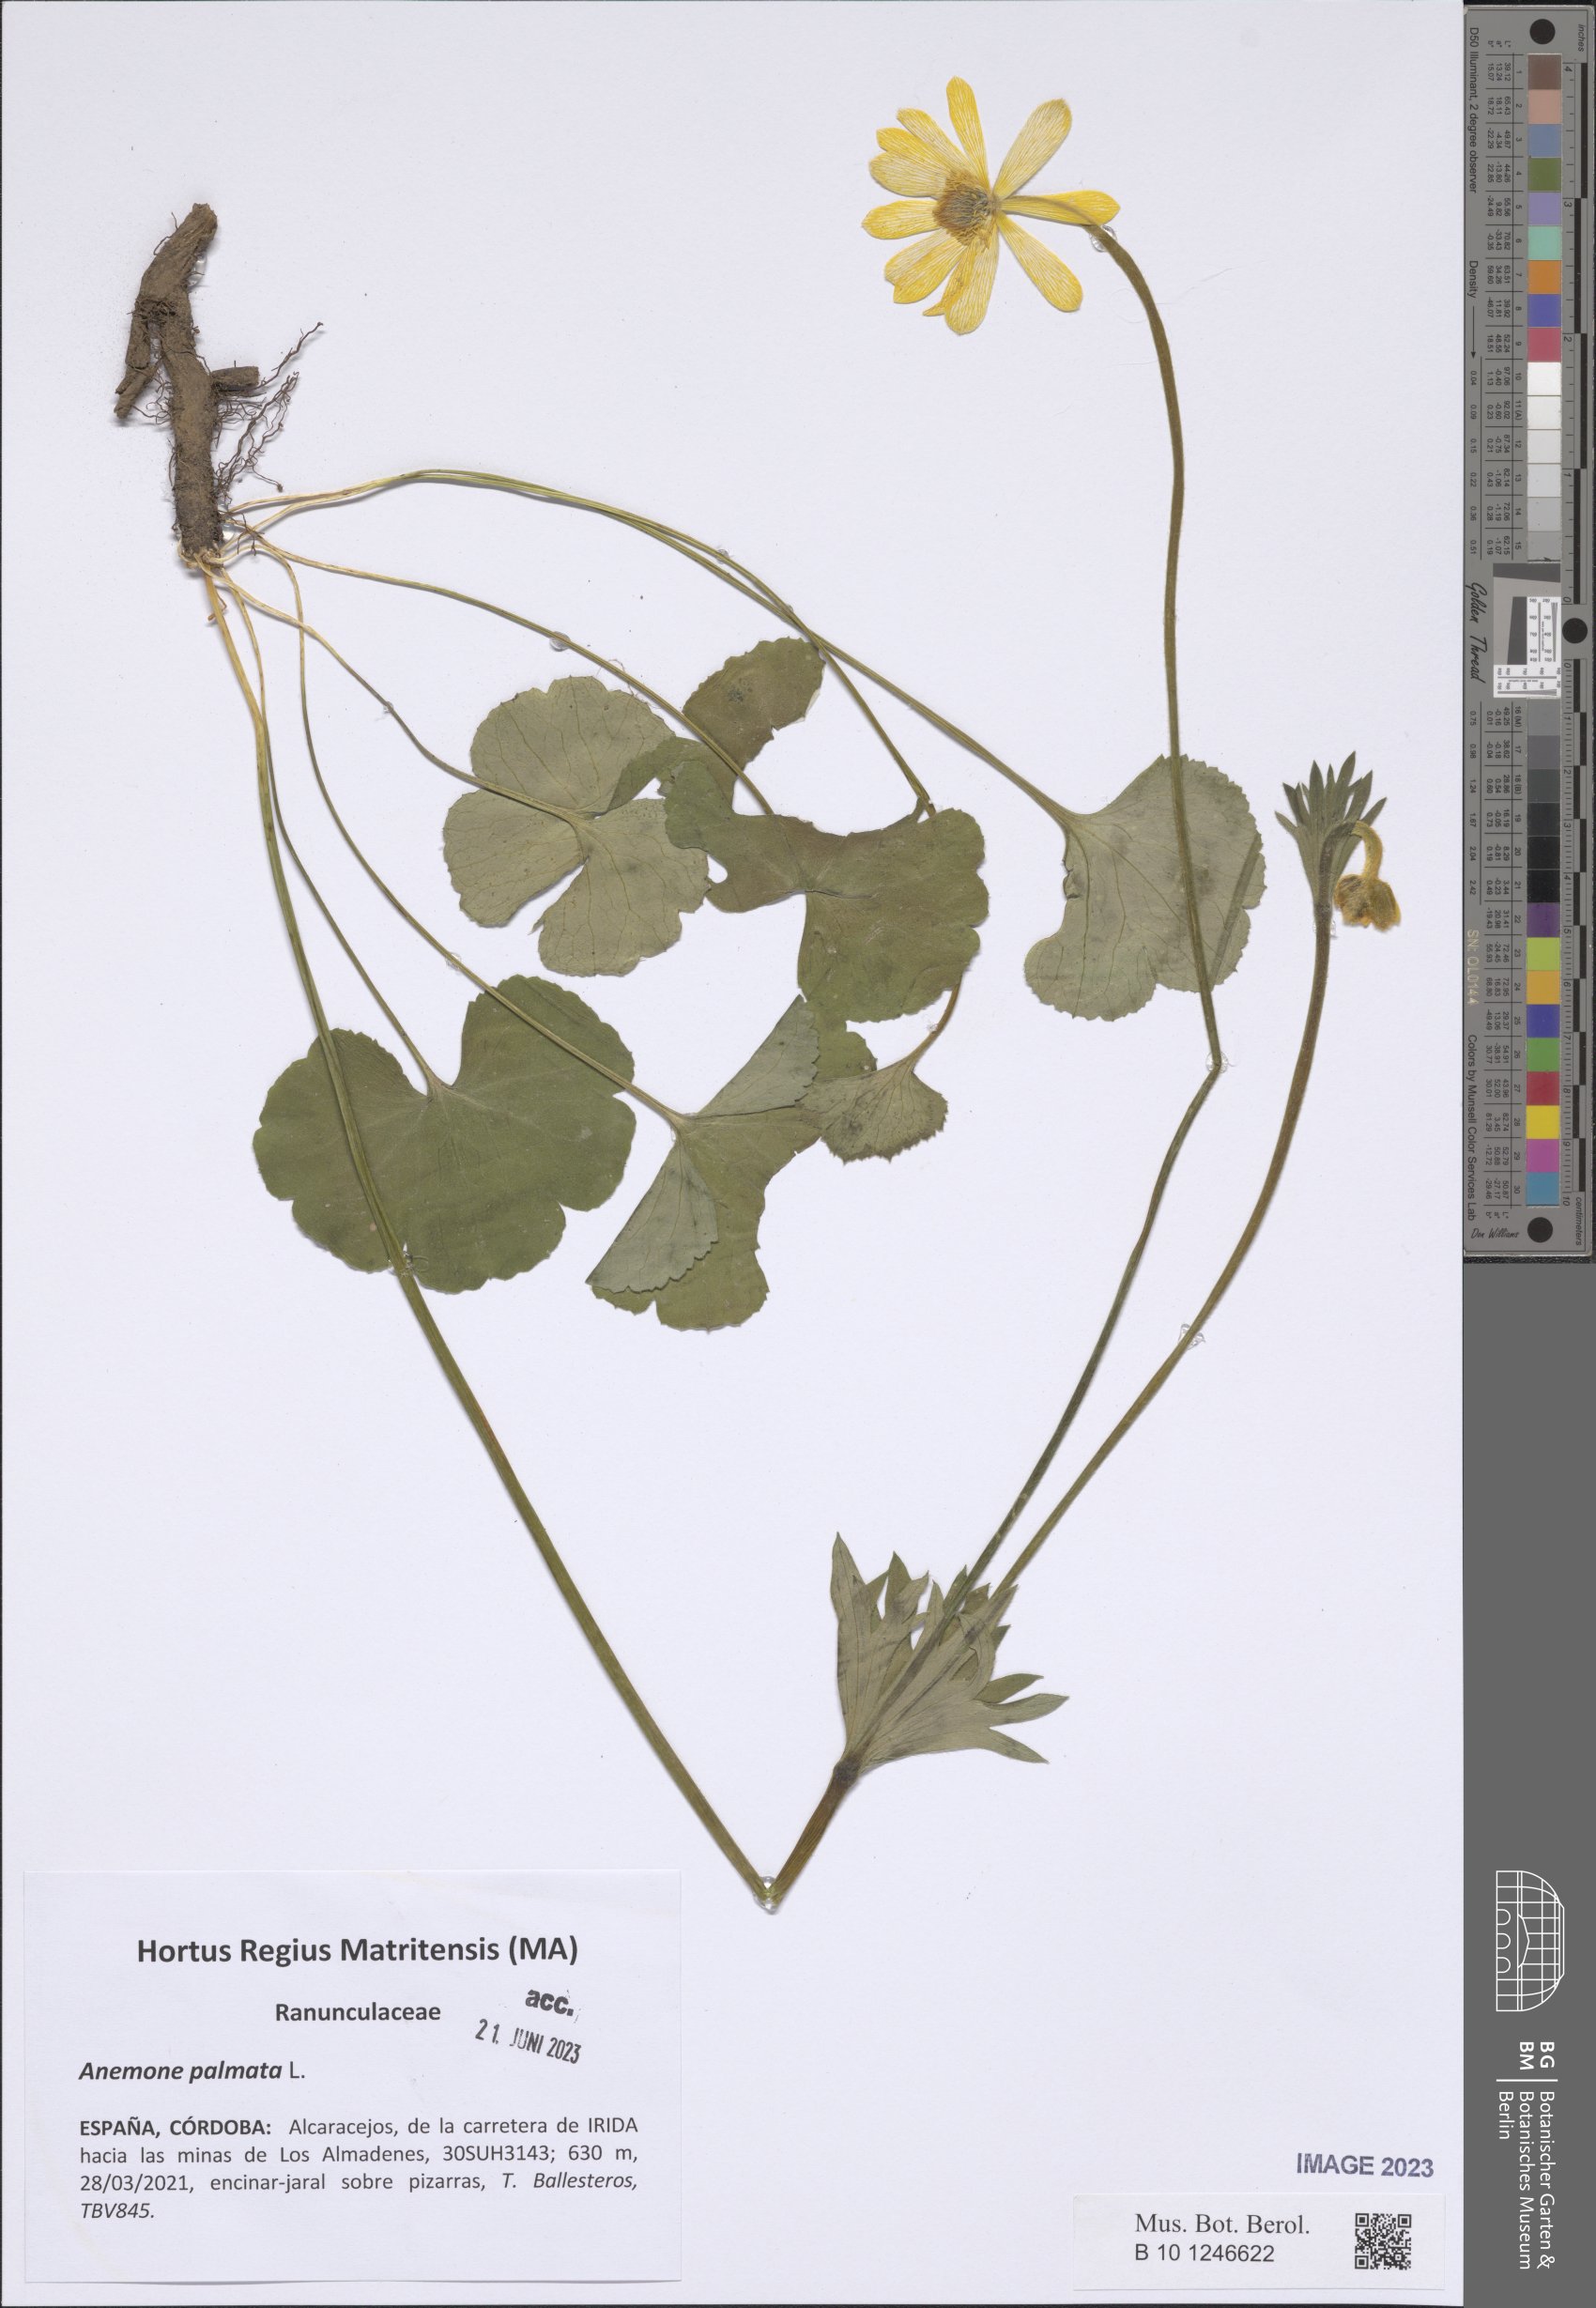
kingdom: Plantae
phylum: Tracheophyta
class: Magnoliopsida
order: Ranunculales
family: Ranunculaceae
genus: Anemone
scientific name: Anemone palmata
